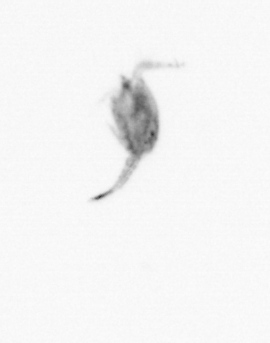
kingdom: Animalia
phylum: Arthropoda
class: Copepoda
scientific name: Copepoda
